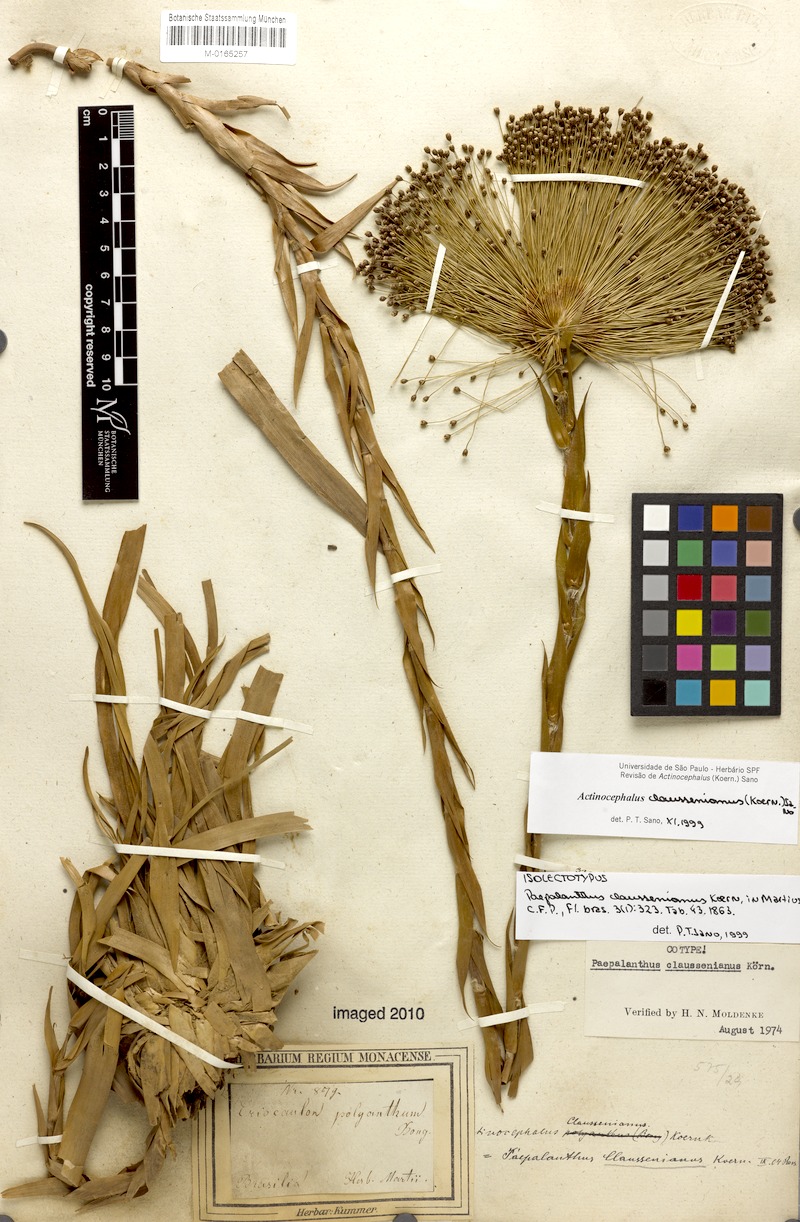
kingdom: Plantae
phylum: Tracheophyta
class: Liliopsida
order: Poales
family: Eriocaulaceae
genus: Paepalanthus
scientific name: Paepalanthus claussenianus
